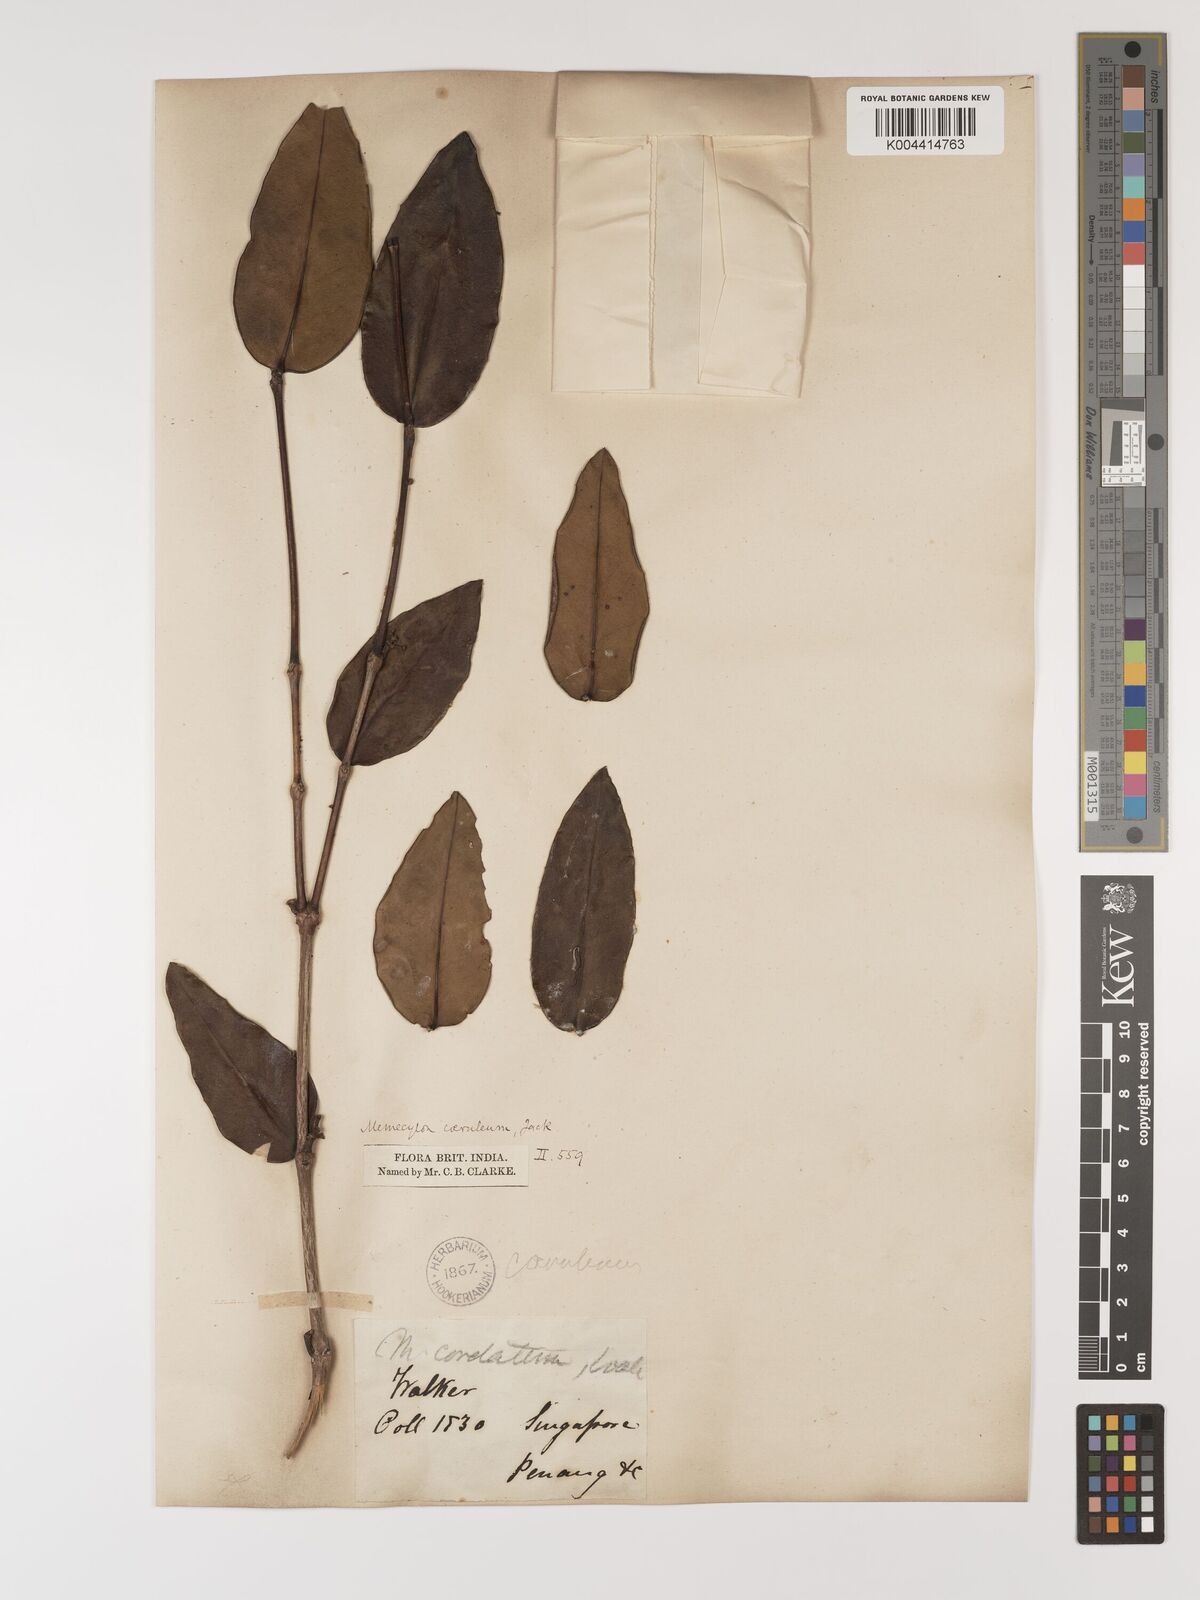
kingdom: Plantae
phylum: Tracheophyta
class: Magnoliopsida
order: Myrtales
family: Melastomataceae
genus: Memecylon
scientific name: Memecylon
